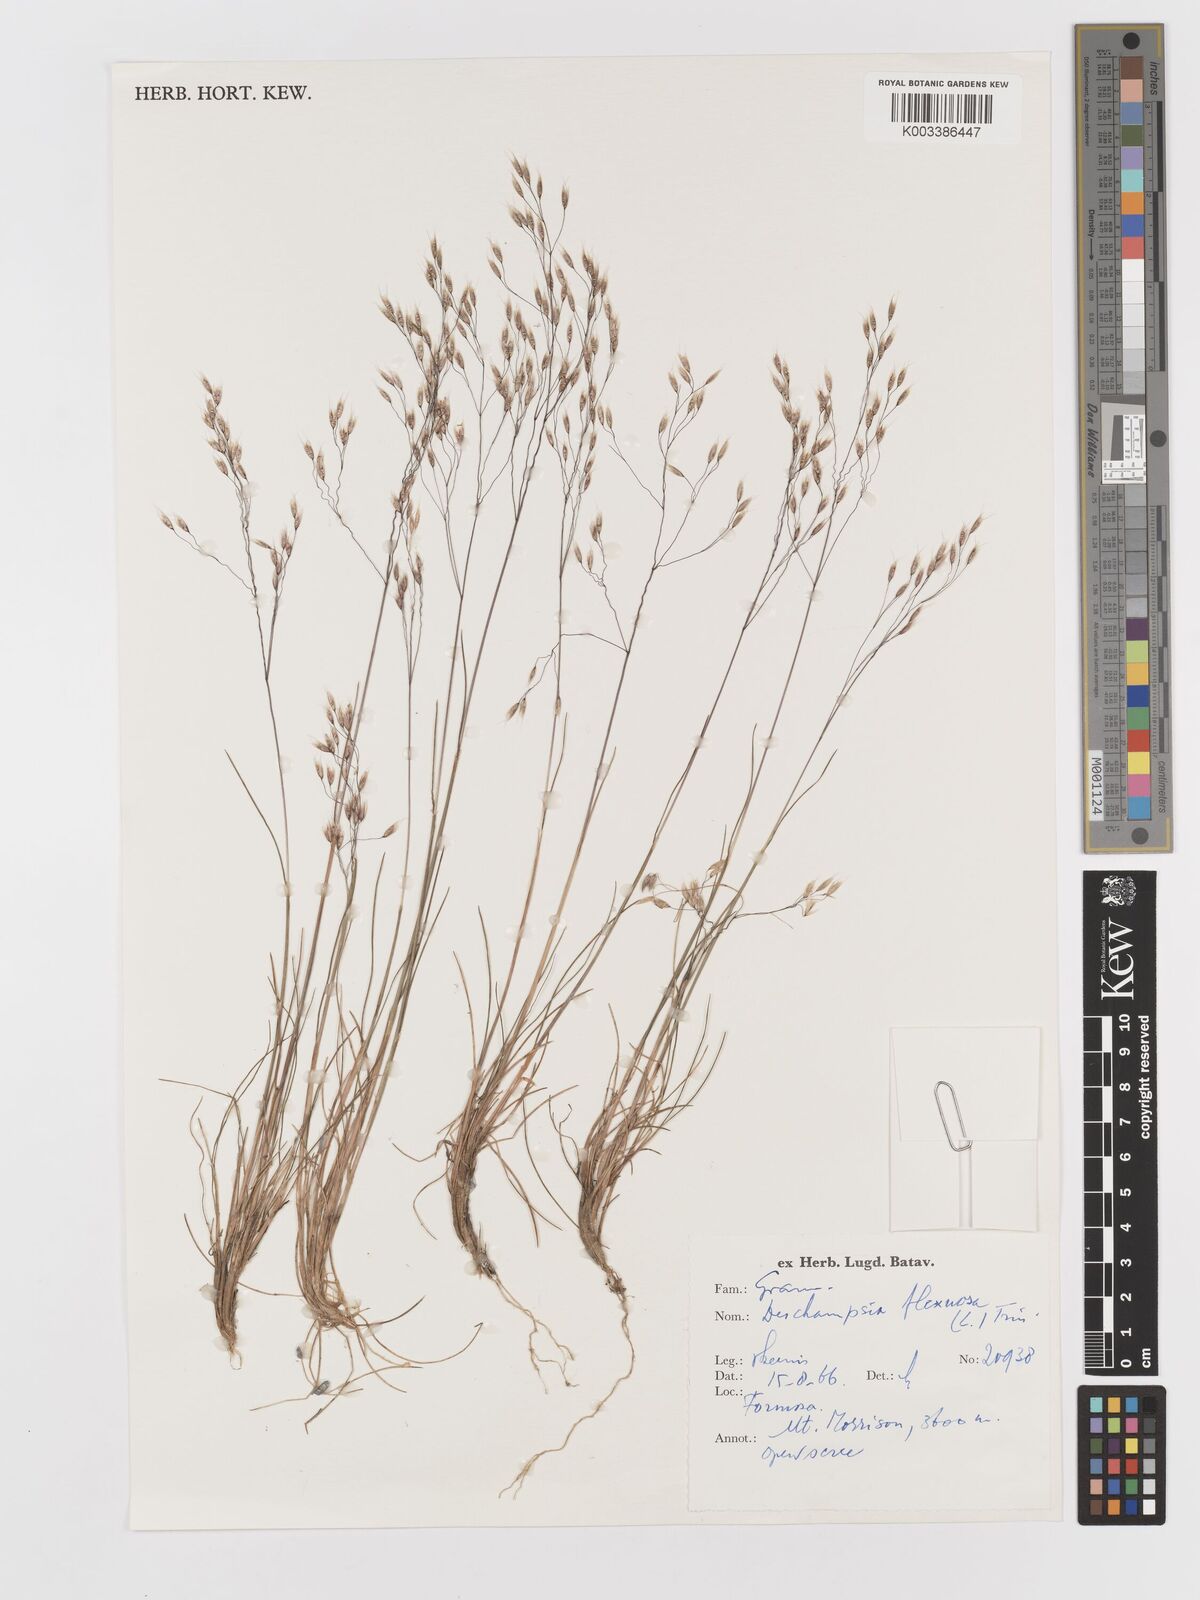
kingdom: Plantae
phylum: Tracheophyta
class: Liliopsida
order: Poales
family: Poaceae
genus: Avenella
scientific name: Avenella flexuosa
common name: Wavy hairgrass
